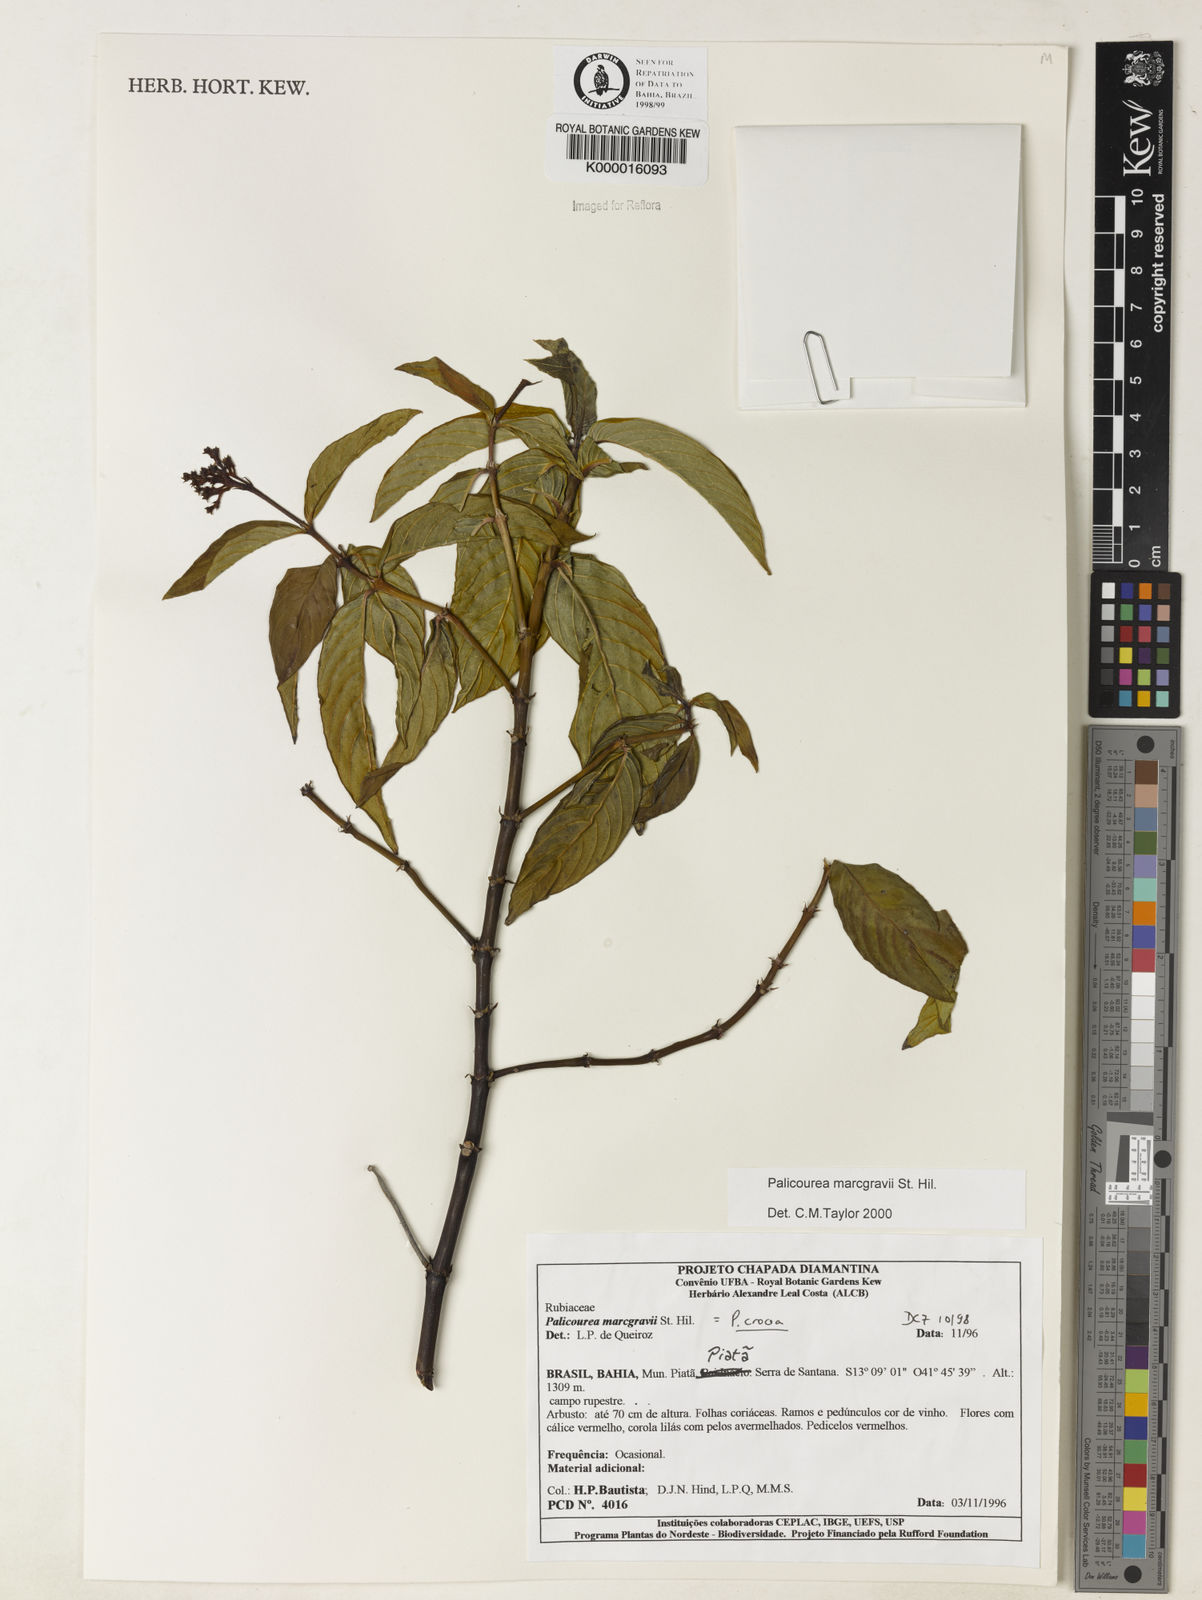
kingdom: Plantae
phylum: Tracheophyta
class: Magnoliopsida
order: Gentianales
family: Rubiaceae
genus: Palicourea
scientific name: Palicourea marcgravii
